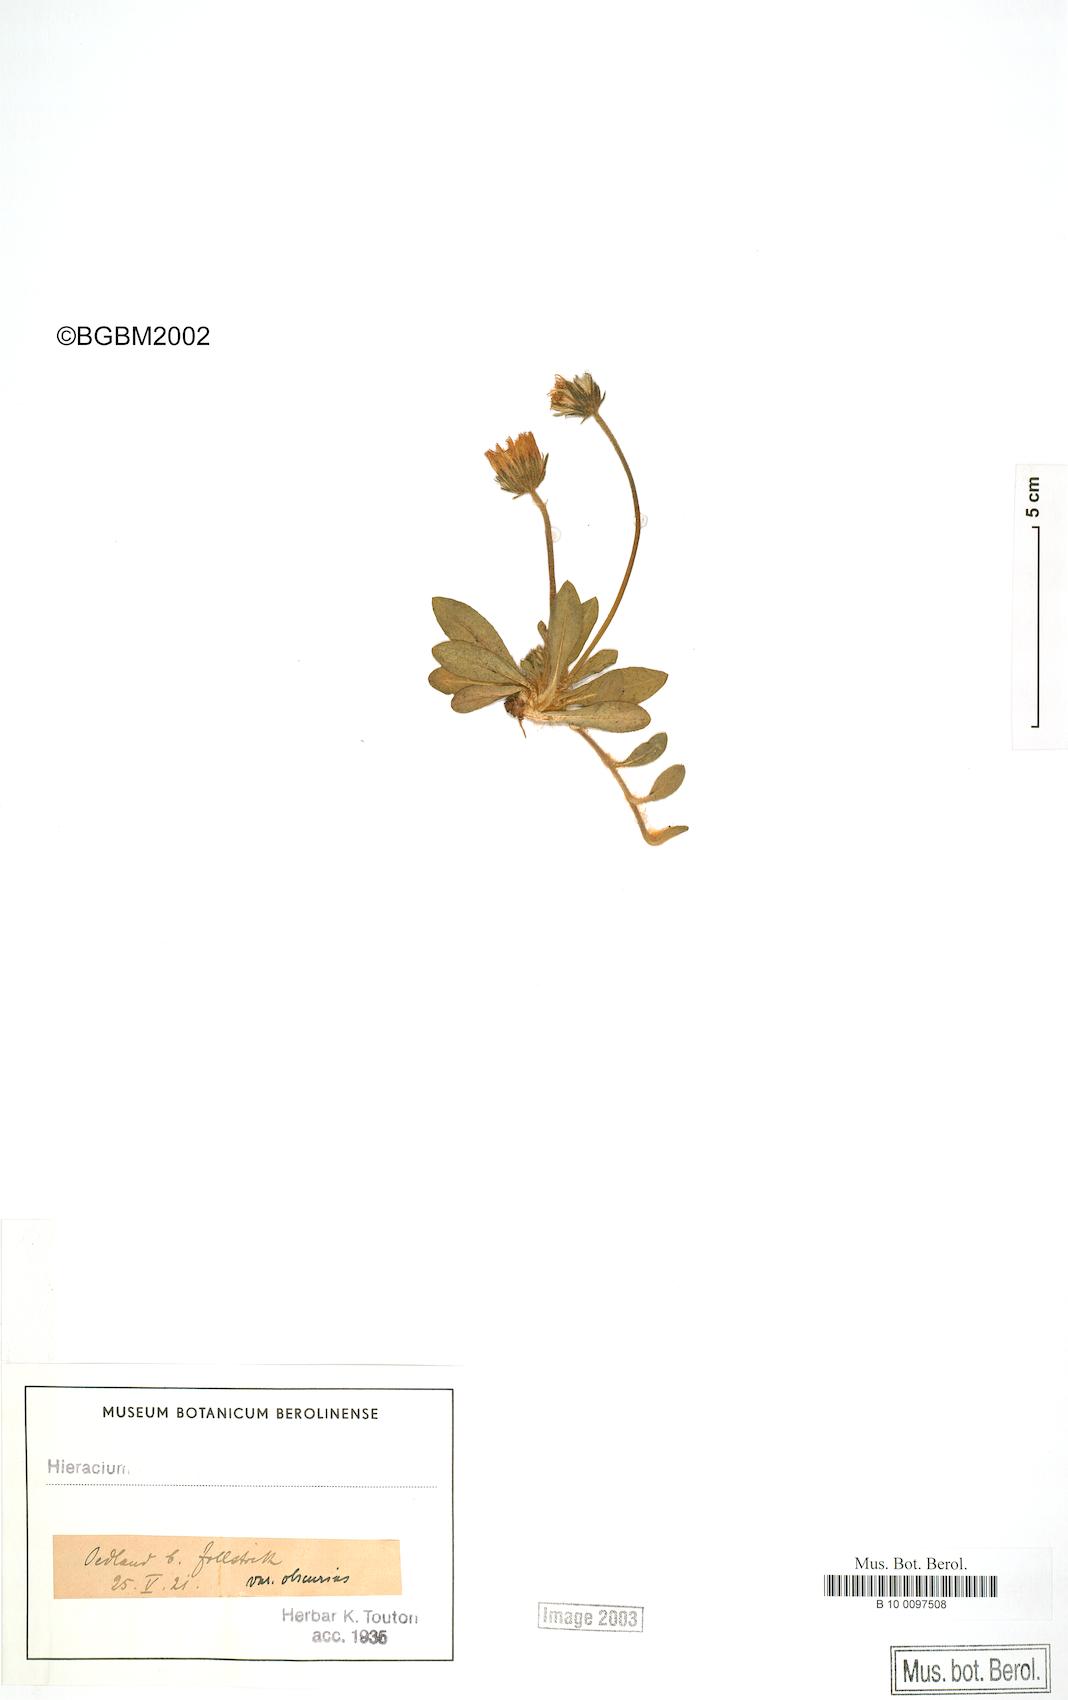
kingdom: Plantae
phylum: Tracheophyta
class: Magnoliopsida
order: Asterales
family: Asteraceae
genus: Pilosella
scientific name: Pilosella officinarum
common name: Mouse-ear hawkweed
